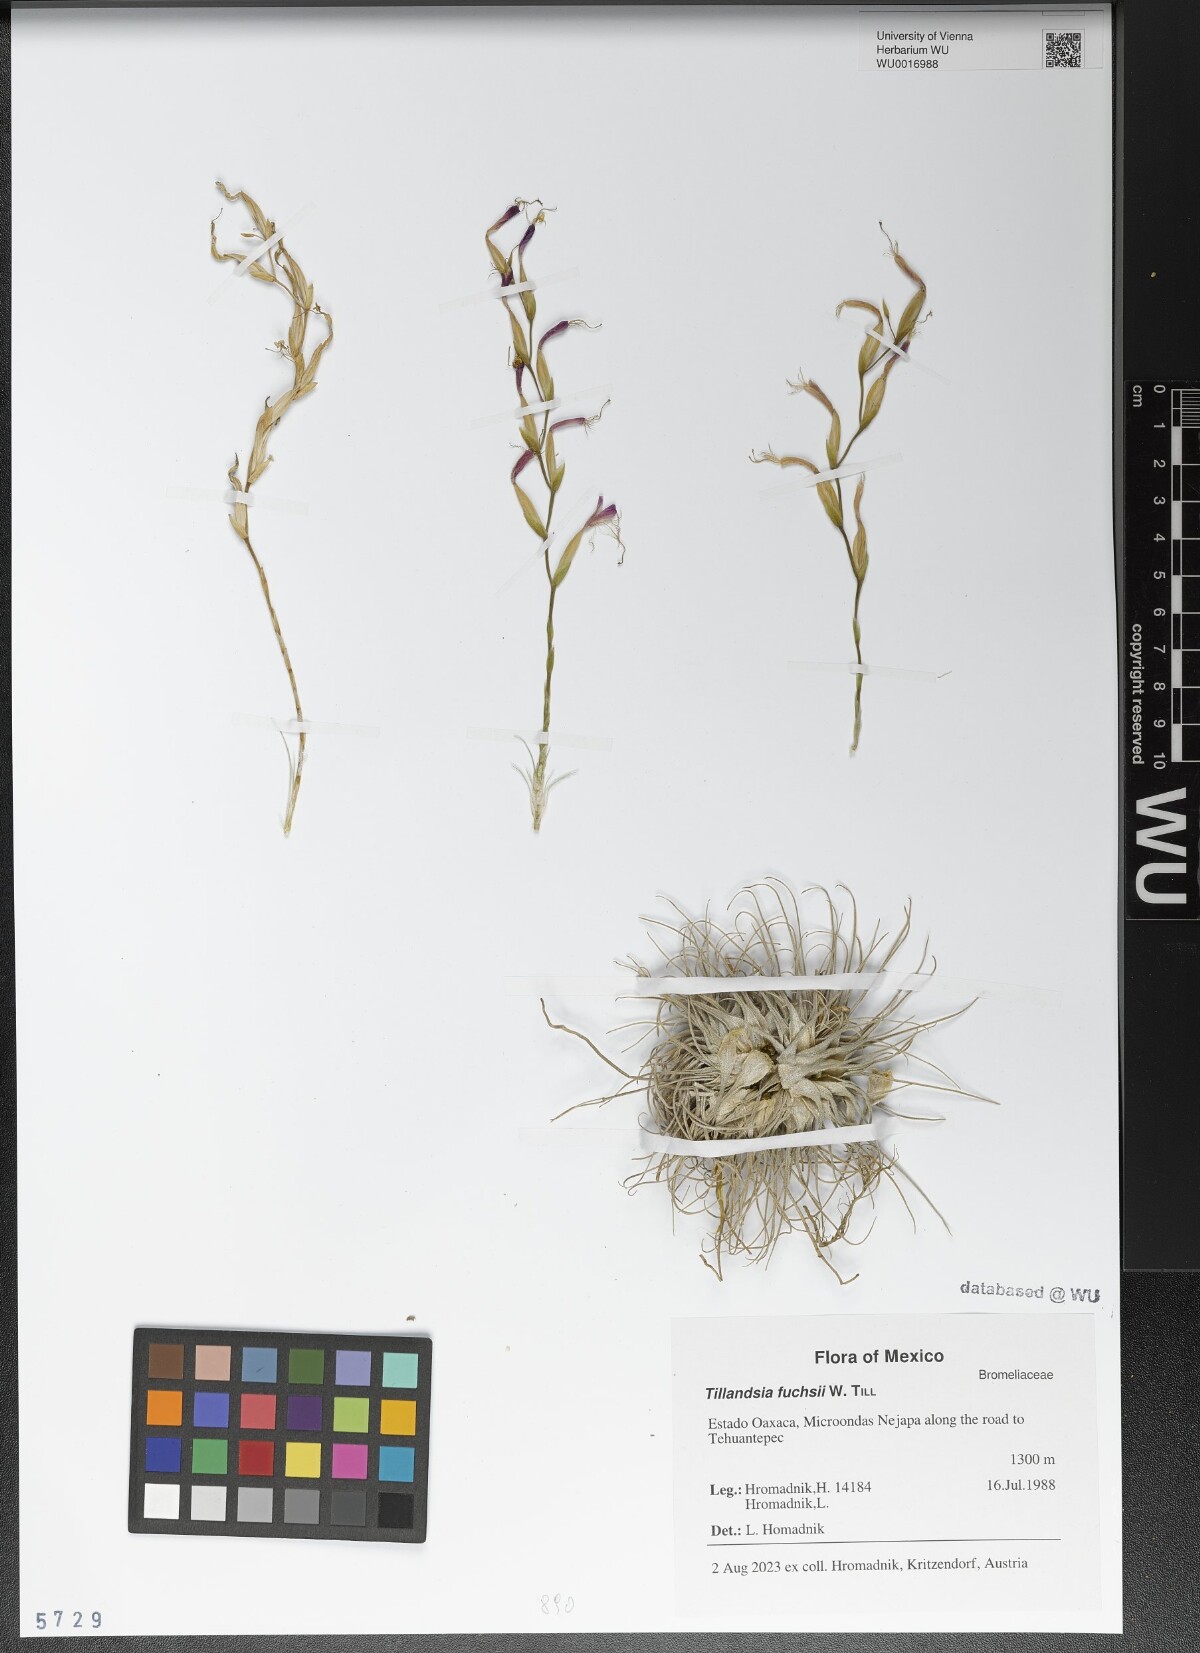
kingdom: Plantae
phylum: Tracheophyta
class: Liliopsida
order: Poales
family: Bromeliaceae
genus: Tillandsia
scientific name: Tillandsia fuchsii
